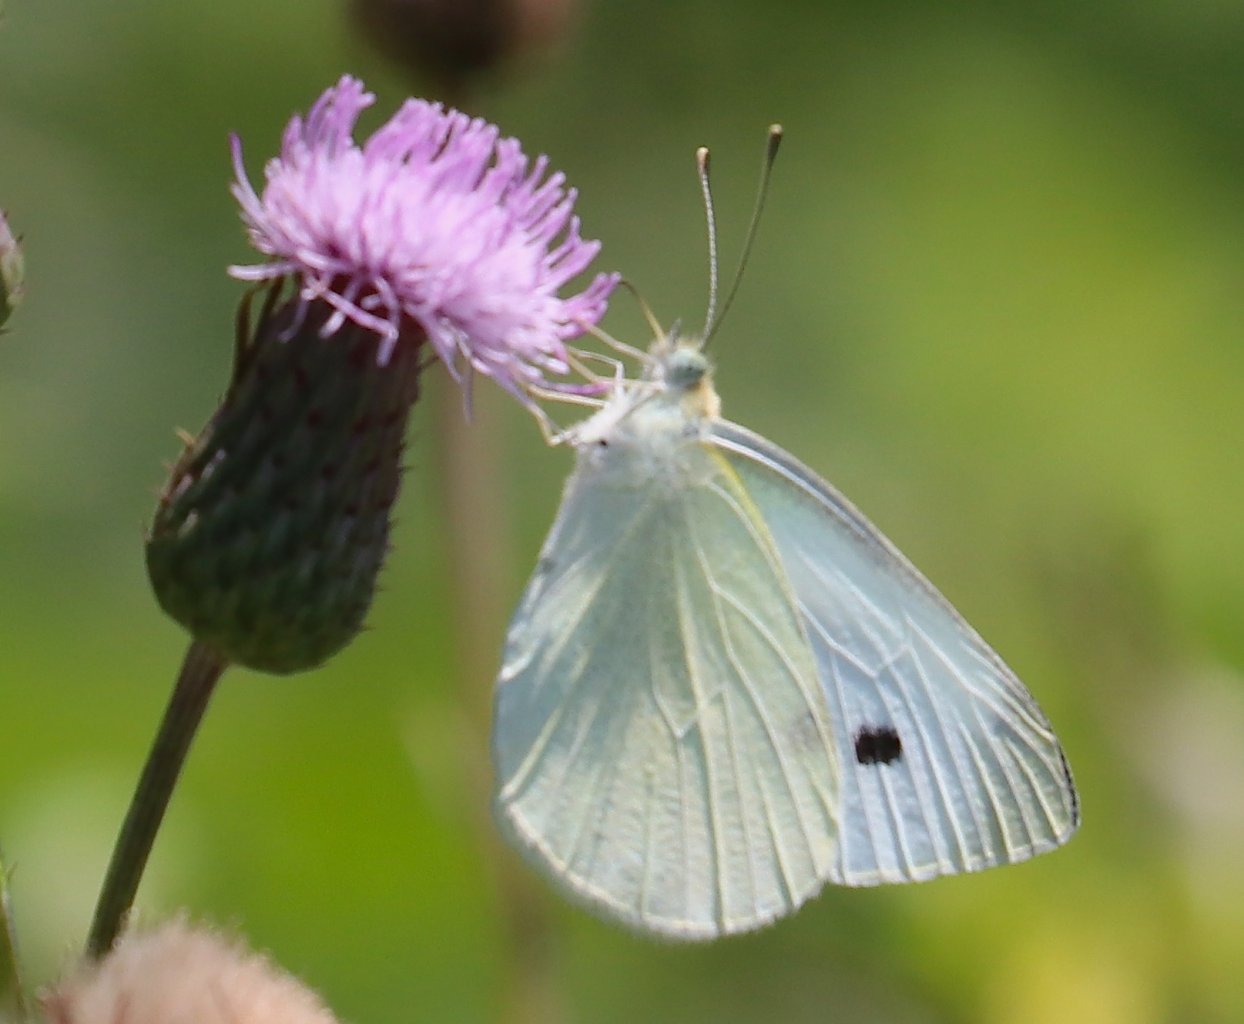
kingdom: Animalia
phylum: Arthropoda
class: Insecta
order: Lepidoptera
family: Pieridae
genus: Pieris
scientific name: Pieris rapae
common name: Cabbage White
